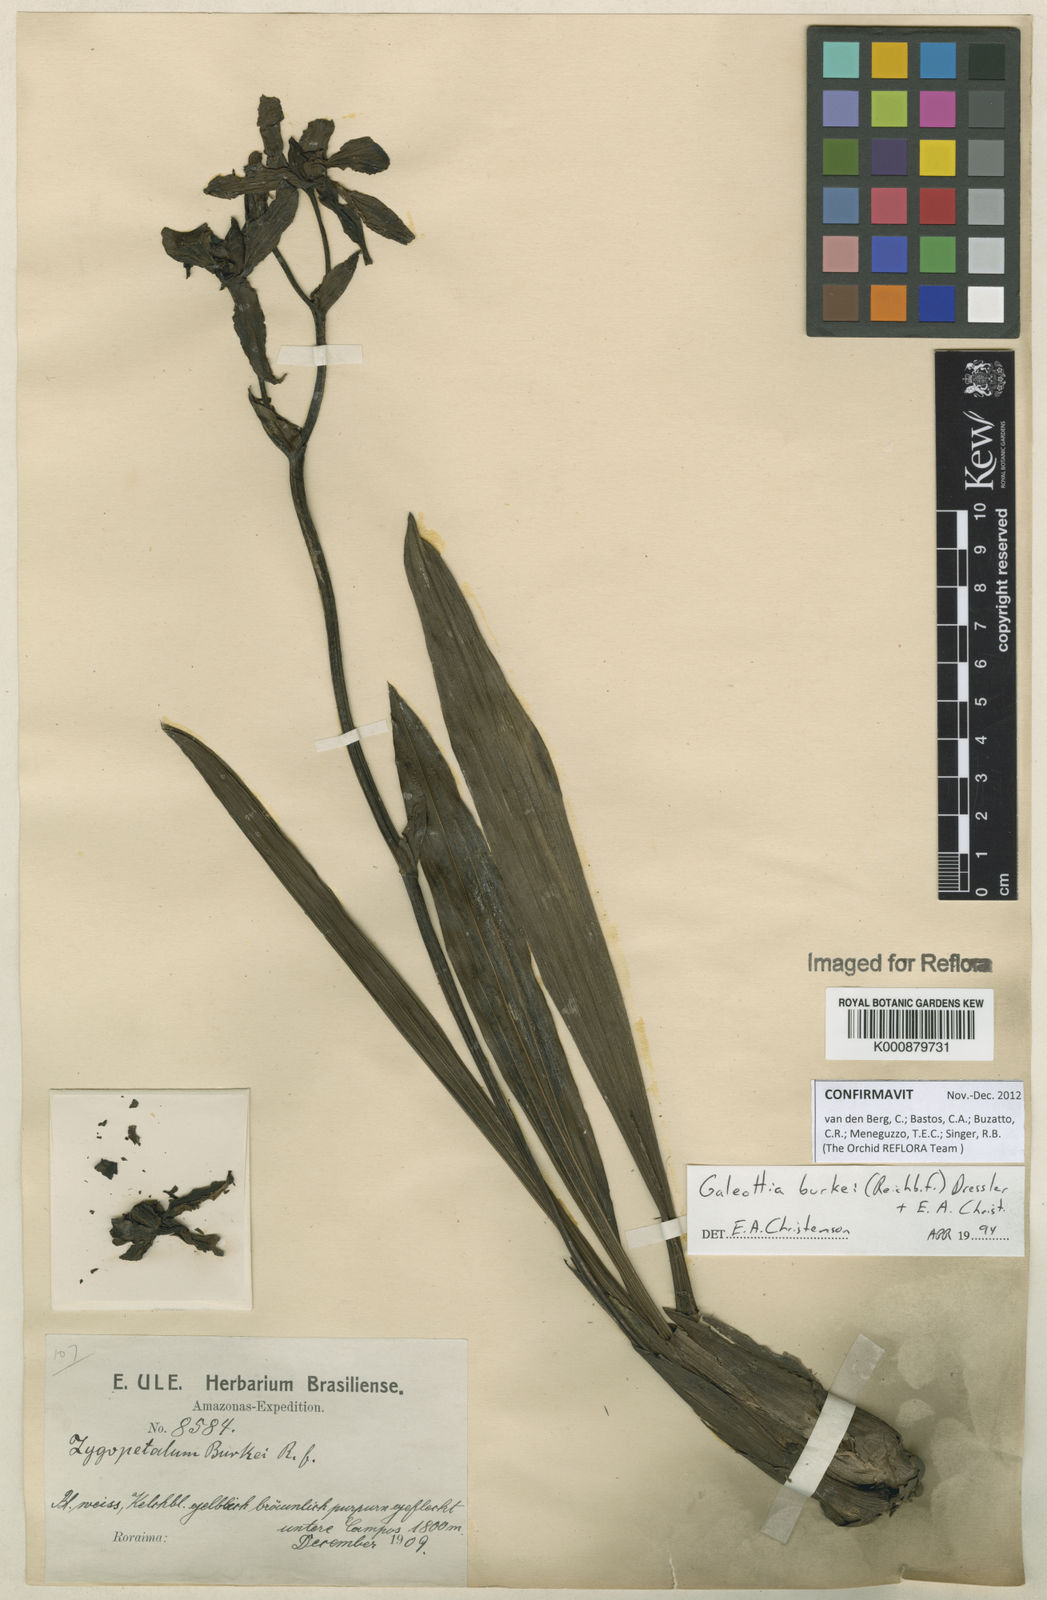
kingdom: Plantae
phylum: Tracheophyta
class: Liliopsida
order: Asparagales
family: Orchidaceae
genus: Galeottia
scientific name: Galeottia burkei
